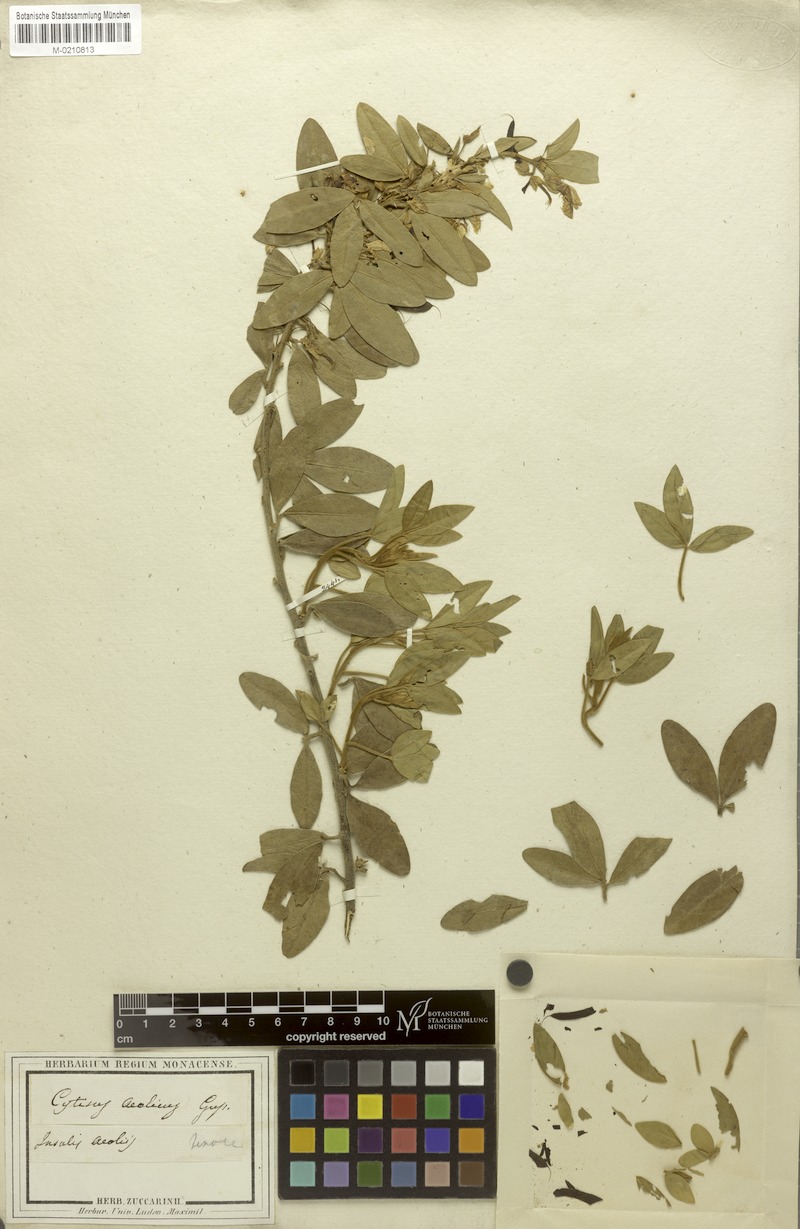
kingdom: Plantae
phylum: Tracheophyta
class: Magnoliopsida
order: Fabales
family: Fabaceae
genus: Cytisophyllum
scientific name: Cytisophyllum Cytisus aeolicus
